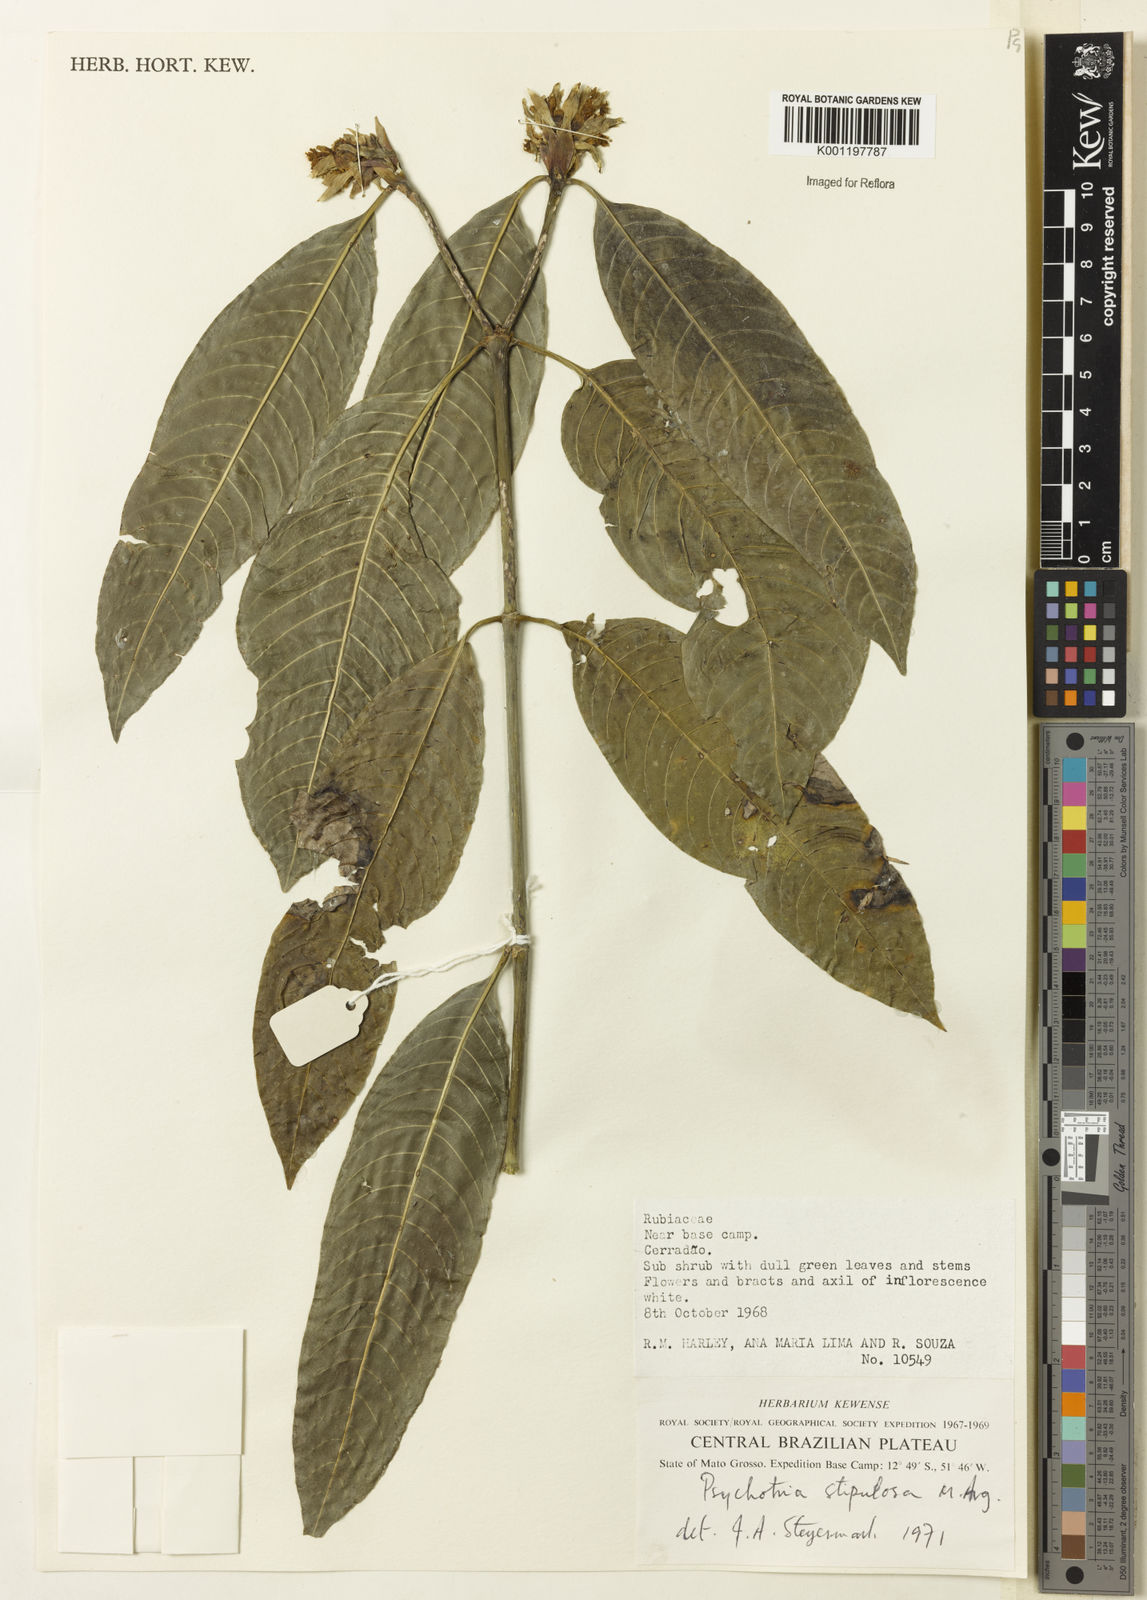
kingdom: Plantae
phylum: Tracheophyta
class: Magnoliopsida
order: Gentianales
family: Rubiaceae
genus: Psychotria
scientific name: Psychotria
